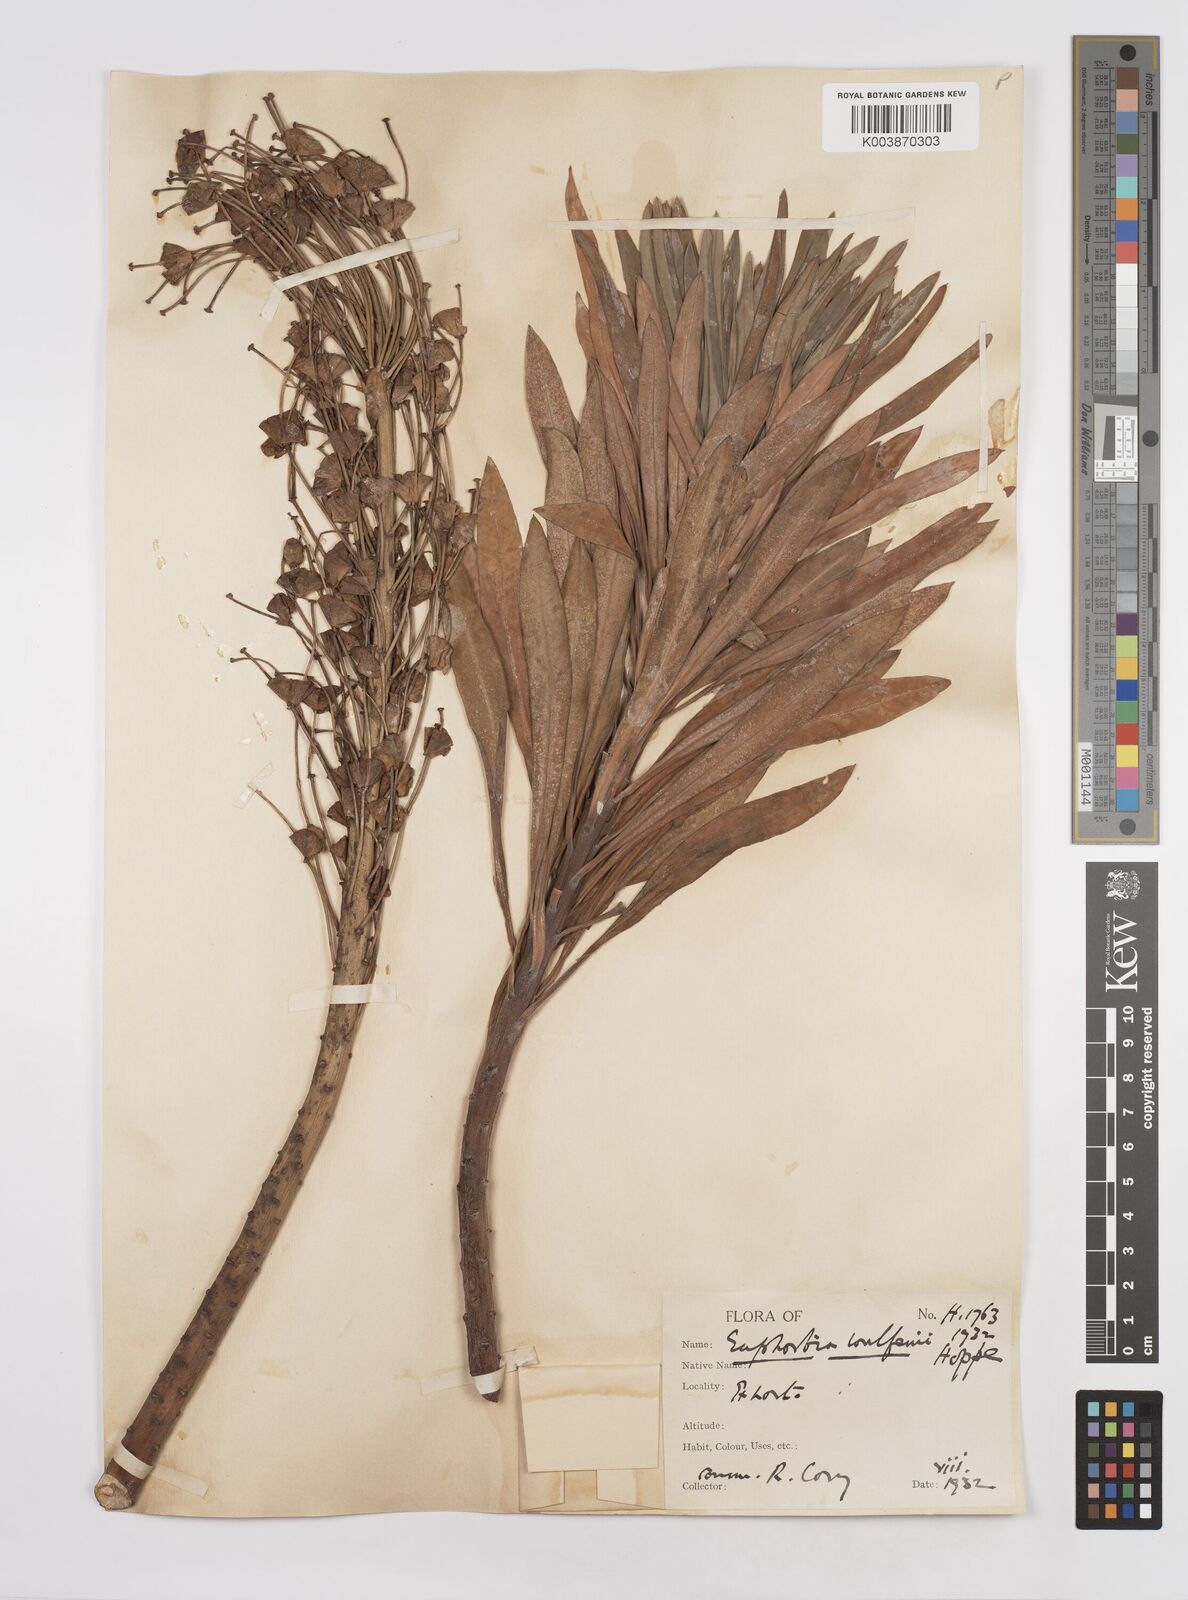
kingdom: Plantae
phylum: Tracheophyta
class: Magnoliopsida
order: Malpighiales
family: Euphorbiaceae
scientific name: Euphorbiaceae
